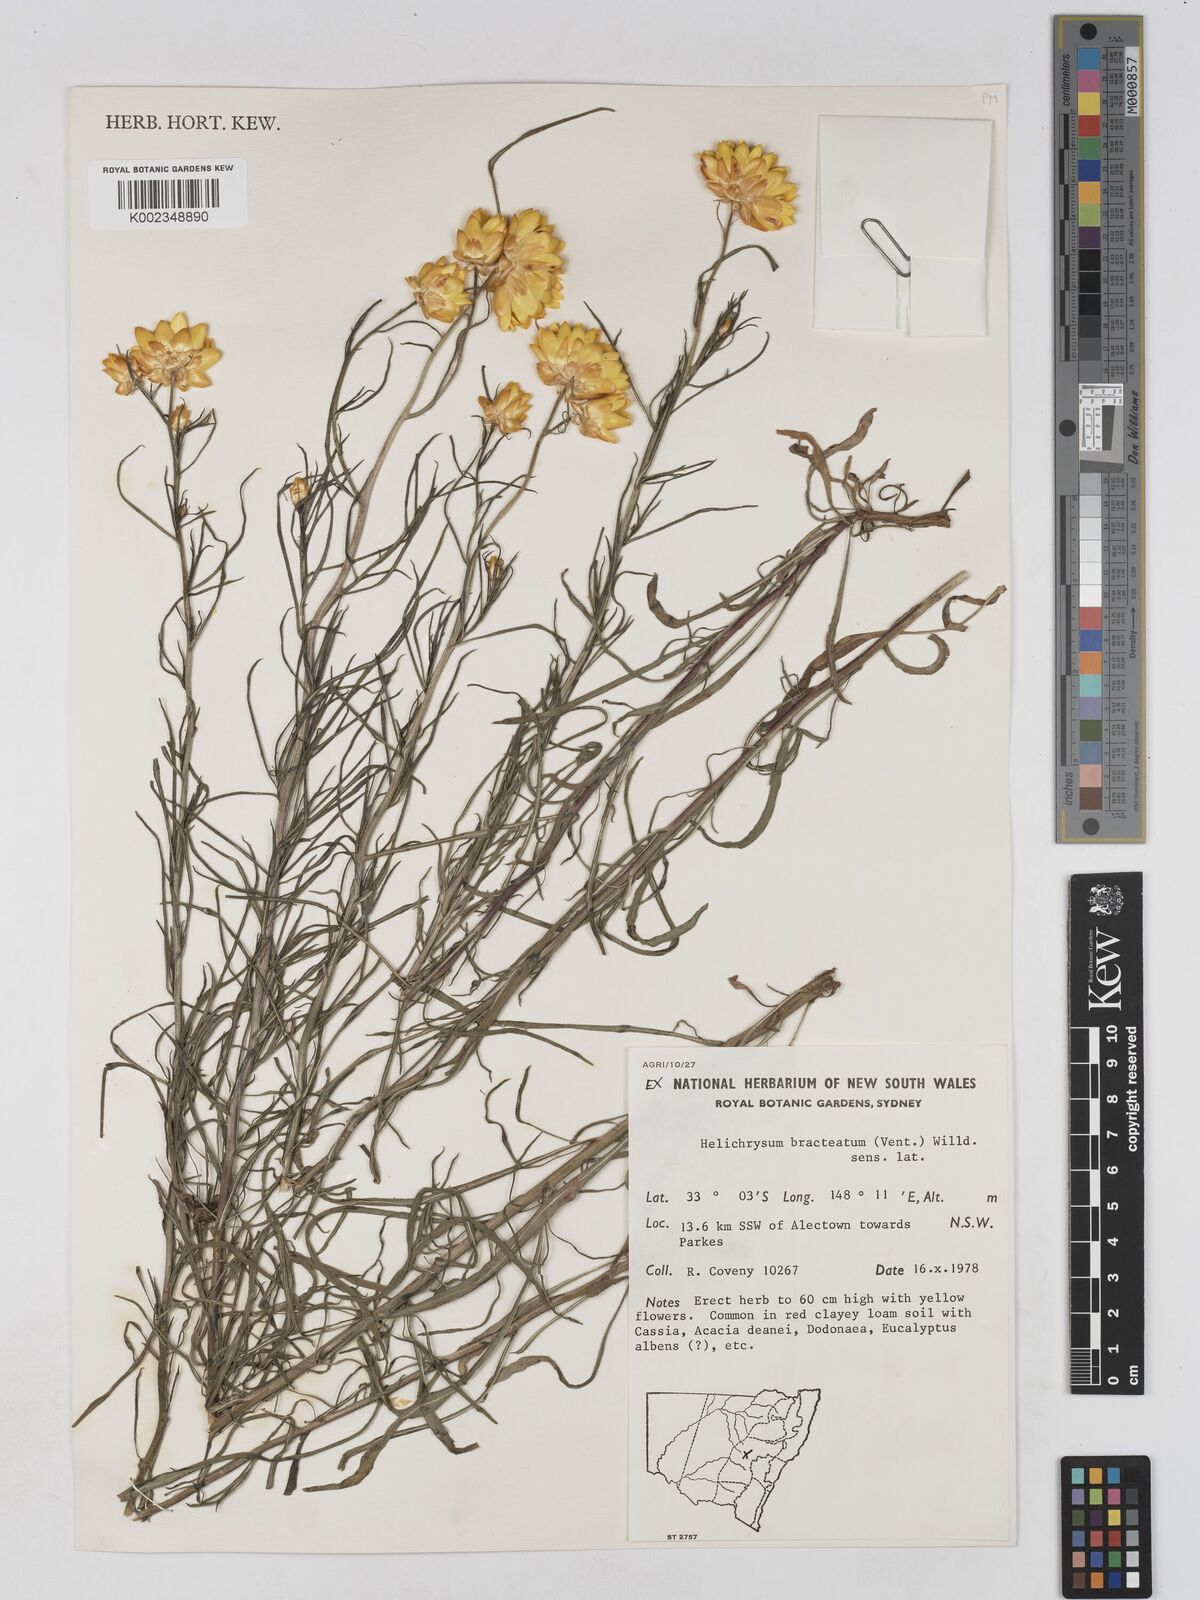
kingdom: Plantae
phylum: Tracheophyta
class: Magnoliopsida
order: Asterales
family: Asteraceae
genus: Xerochrysum
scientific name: Xerochrysum bracteatum
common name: Bracted strawflower
